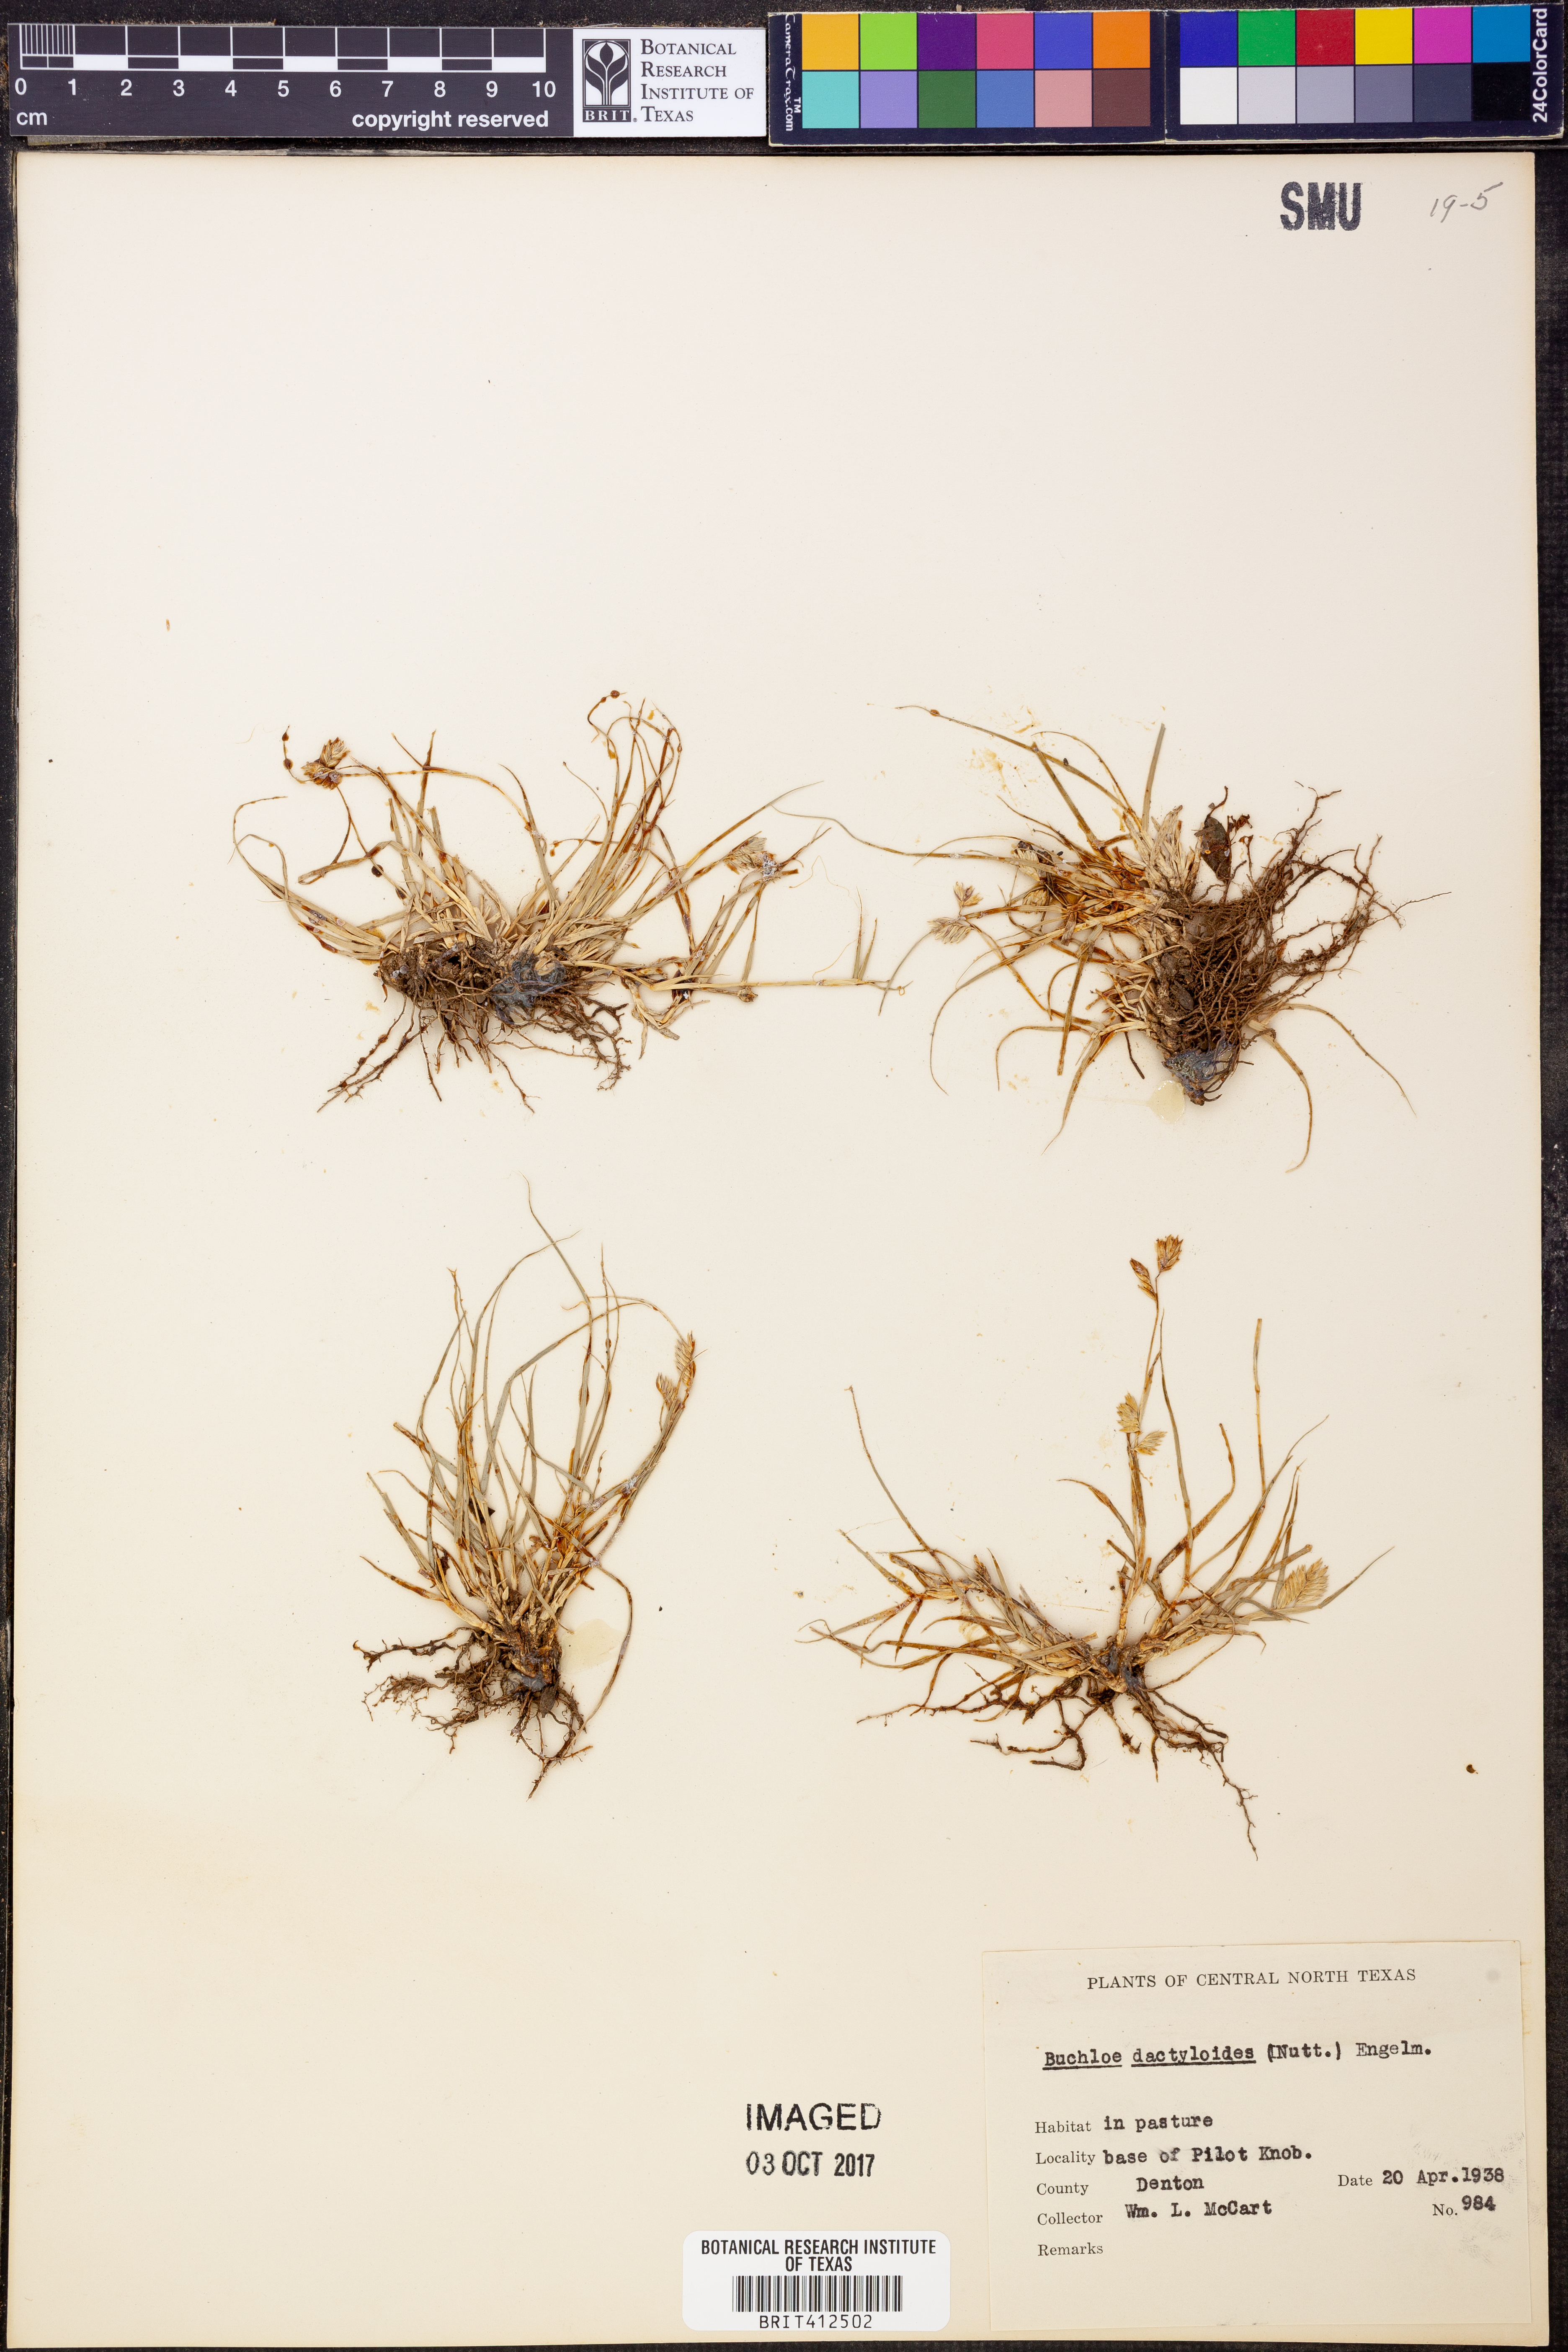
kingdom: Plantae
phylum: Tracheophyta
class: Liliopsida
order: Poales
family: Poaceae
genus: Bouteloua
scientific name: Bouteloua dactyloides
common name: Buffalo grass
